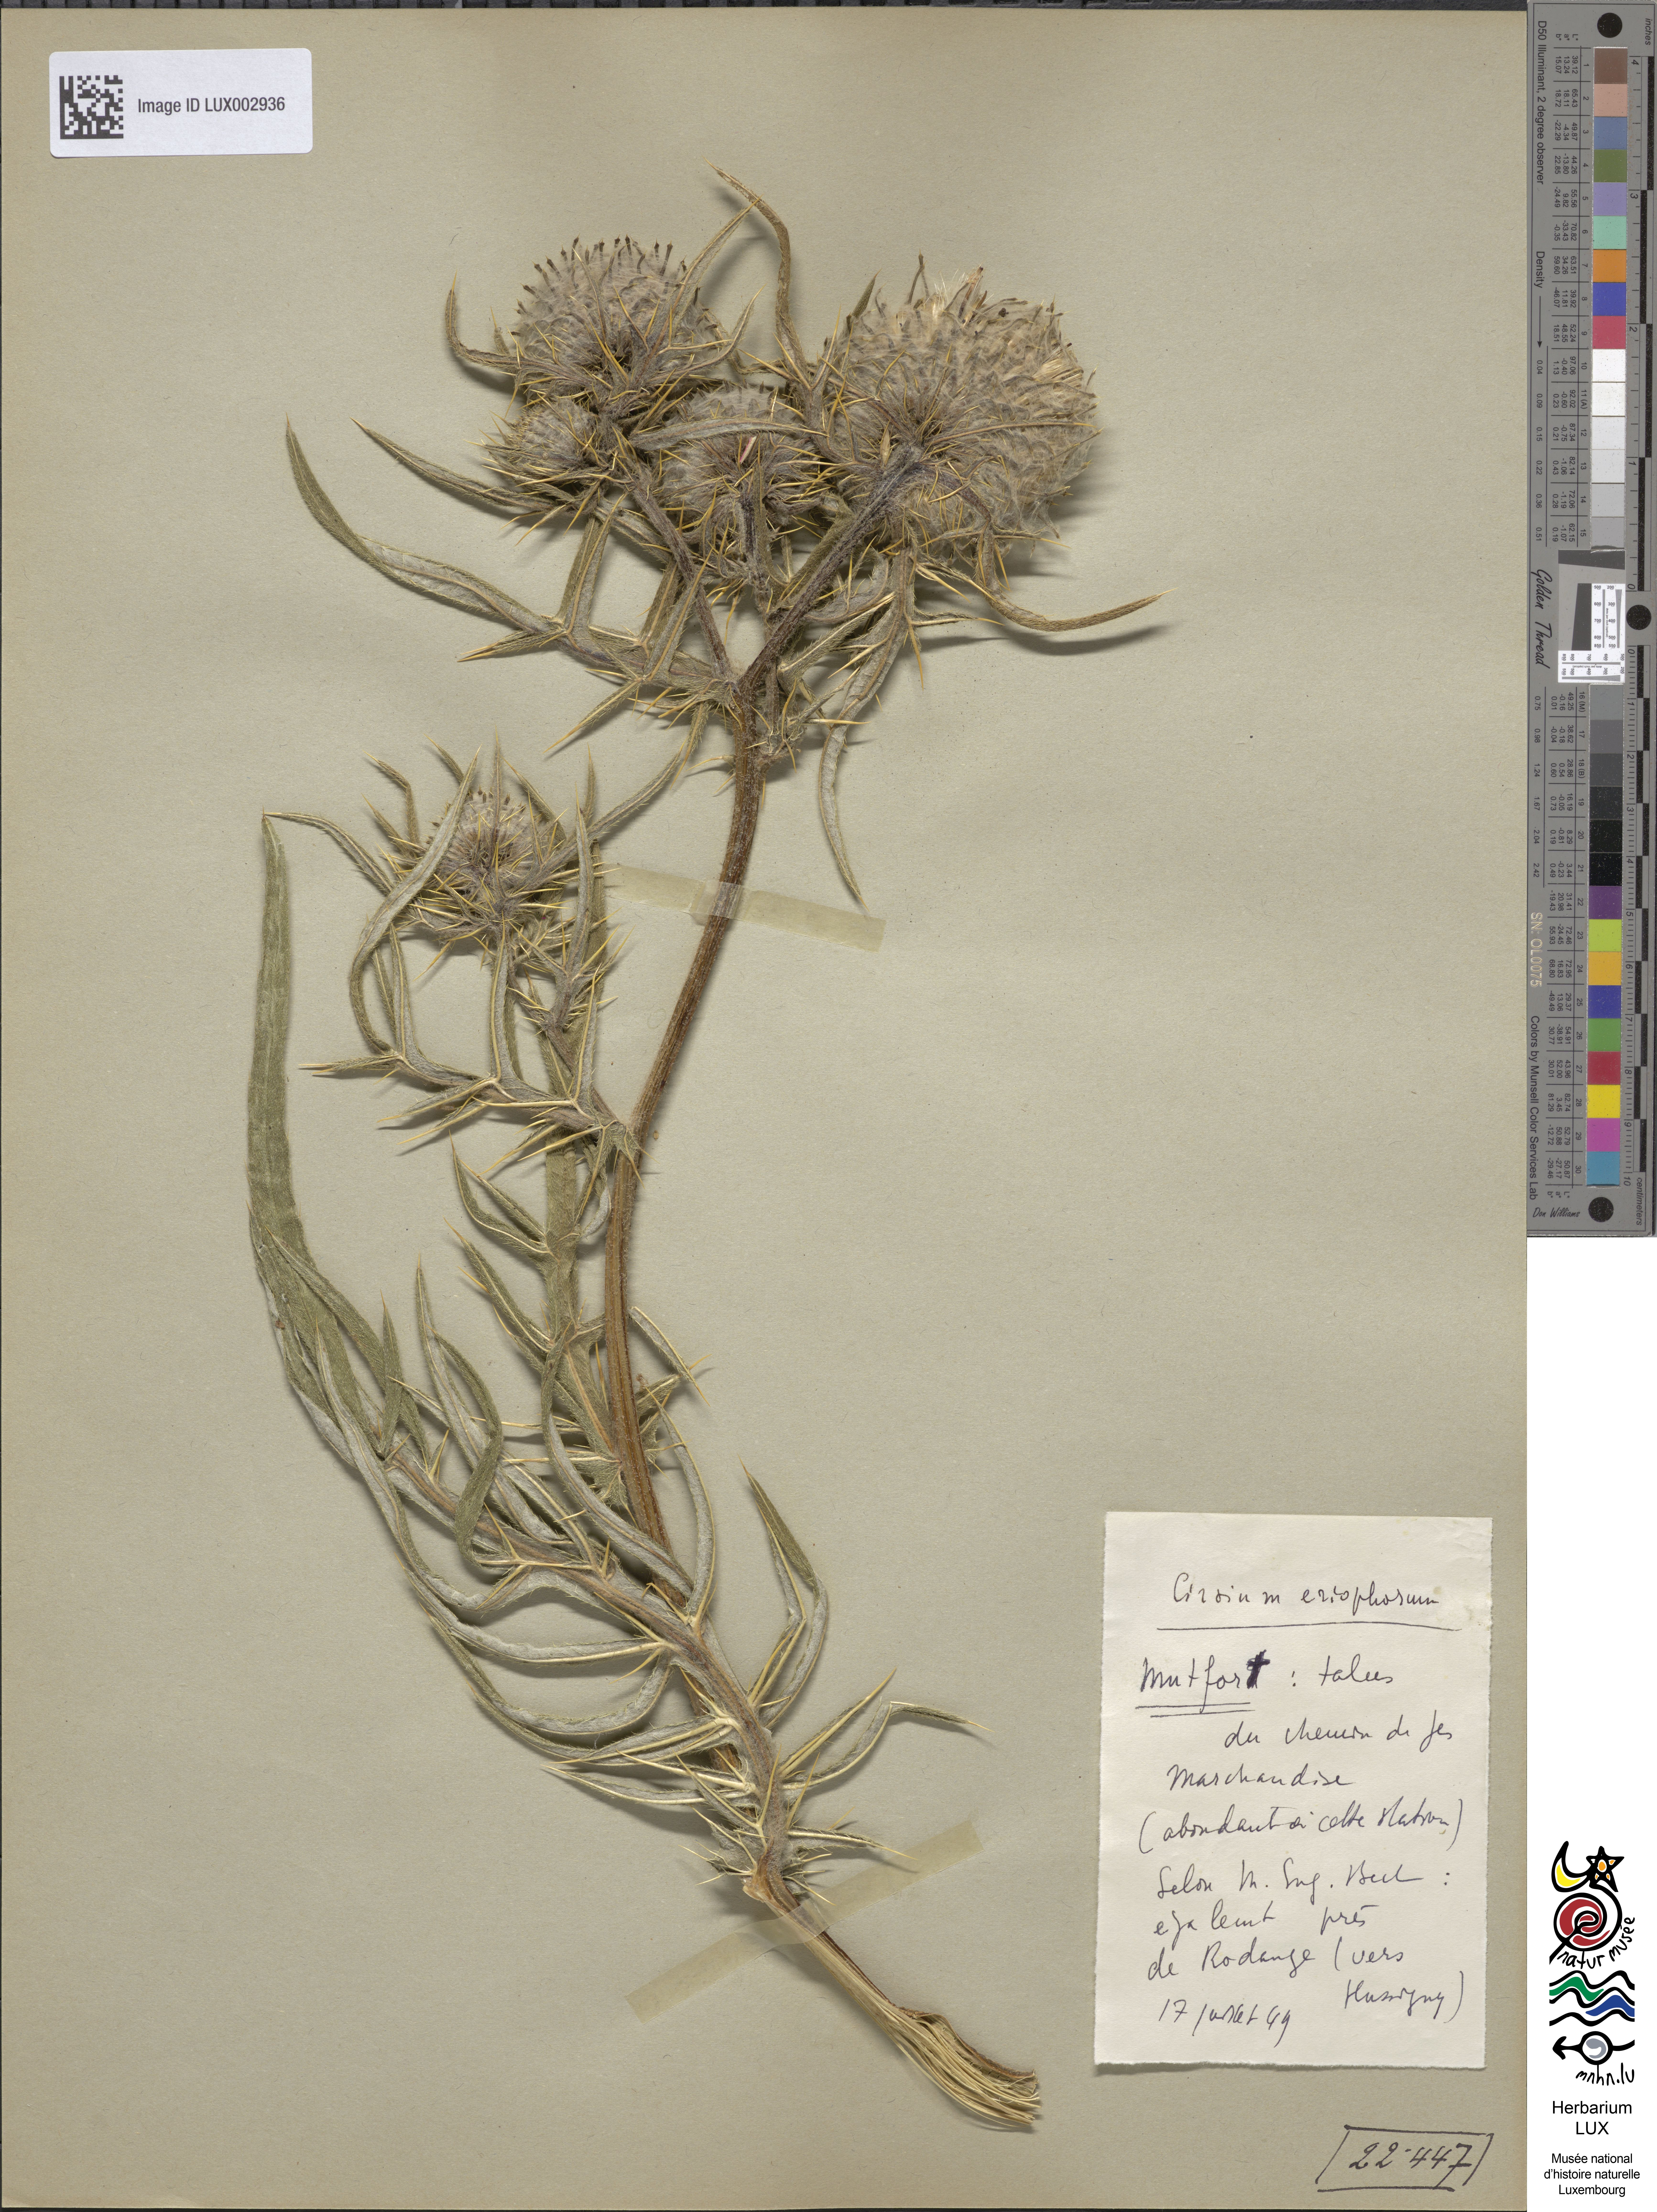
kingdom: Plantae
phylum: Tracheophyta
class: Magnoliopsida
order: Asterales
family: Asteraceae
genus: Lophiolepis
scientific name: Lophiolepis eriophora
